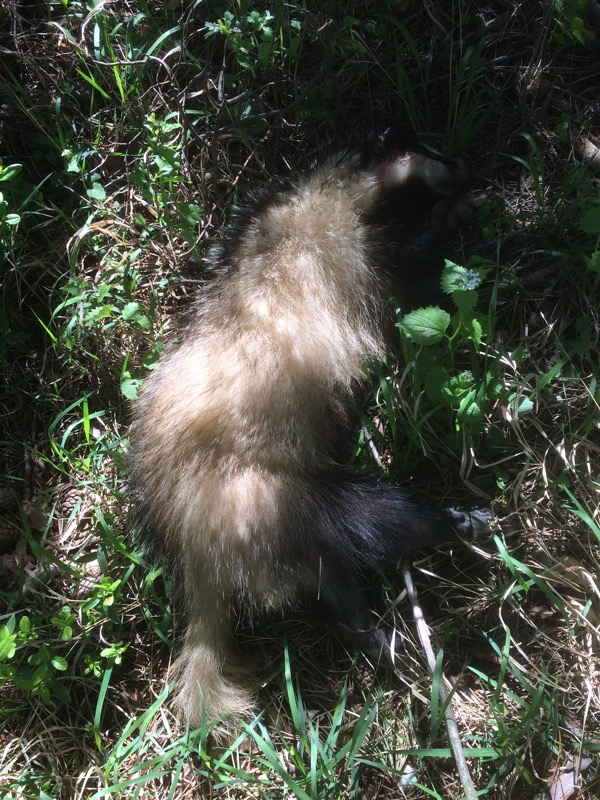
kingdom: Animalia
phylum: Chordata
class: Mammalia
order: Carnivora
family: Mustelidae
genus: Meles
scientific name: Meles meles
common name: Eurasian badger
